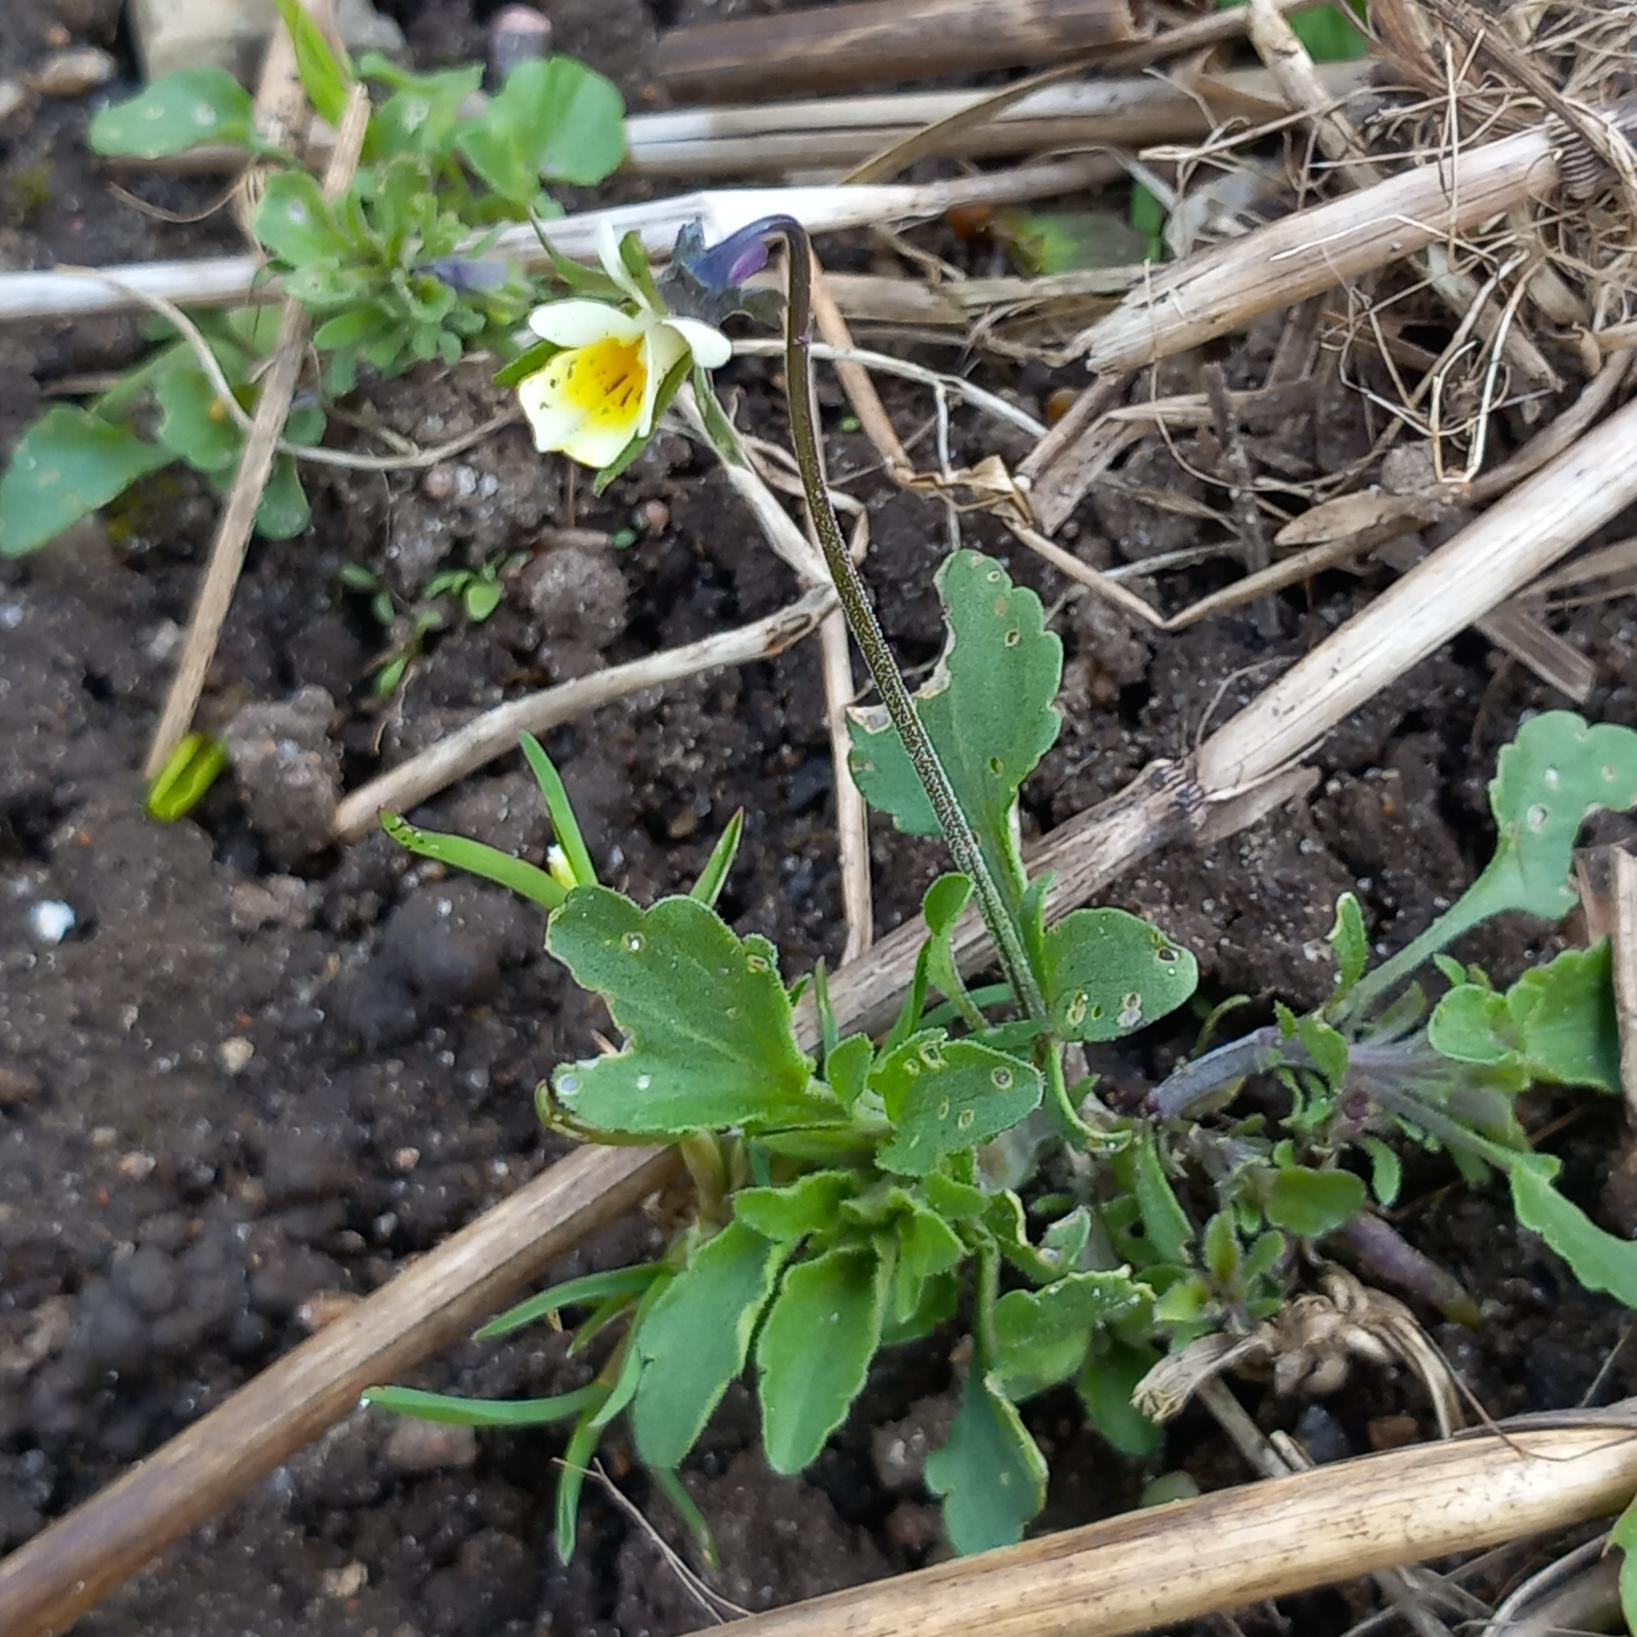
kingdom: Plantae
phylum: Tracheophyta
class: Magnoliopsida
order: Malpighiales
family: Violaceae
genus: Viola
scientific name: Viola arvensis
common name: Ager-stedmoderblomst
